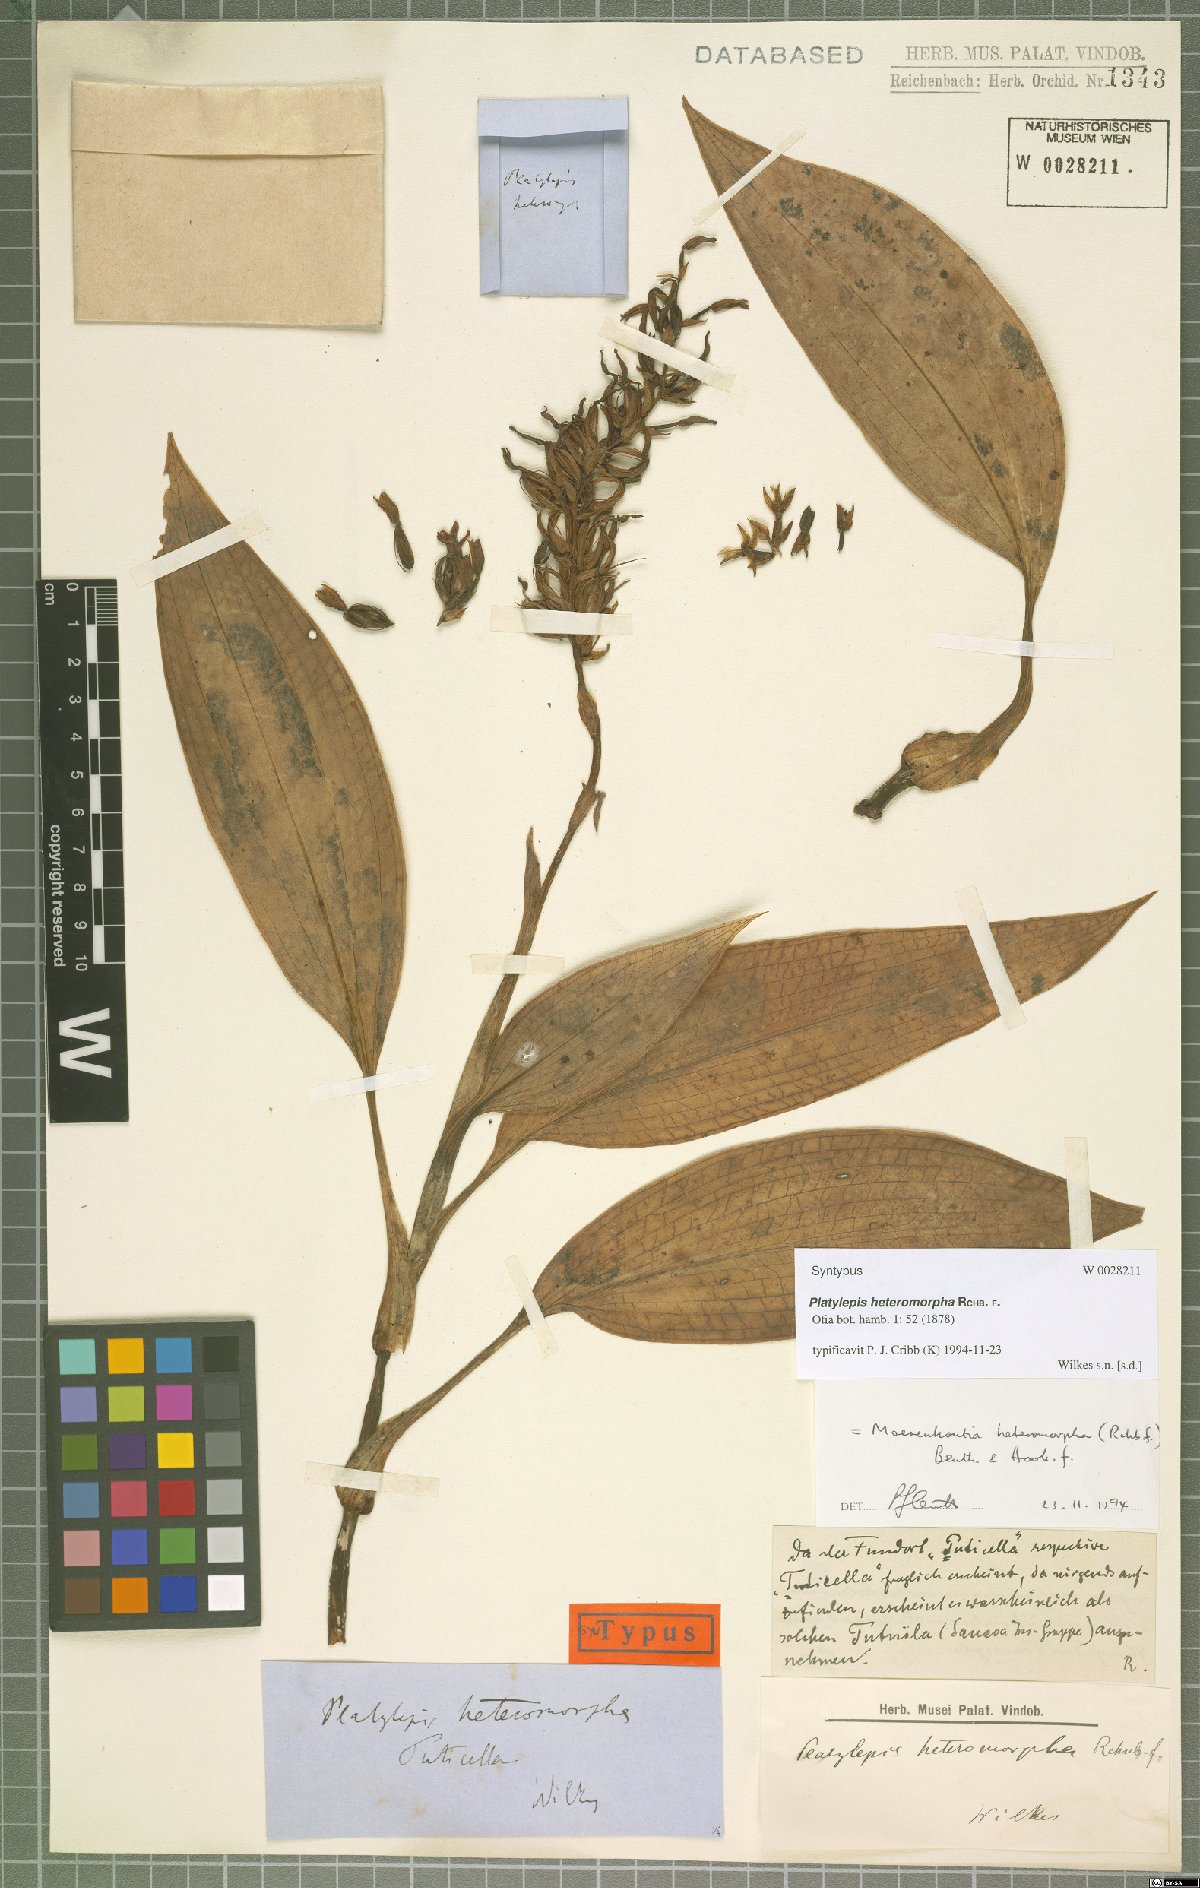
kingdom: Plantae
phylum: Tracheophyta
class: Liliopsida
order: Asparagales
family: Orchidaceae
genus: Platylepis
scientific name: Platylepis heteromorpha
